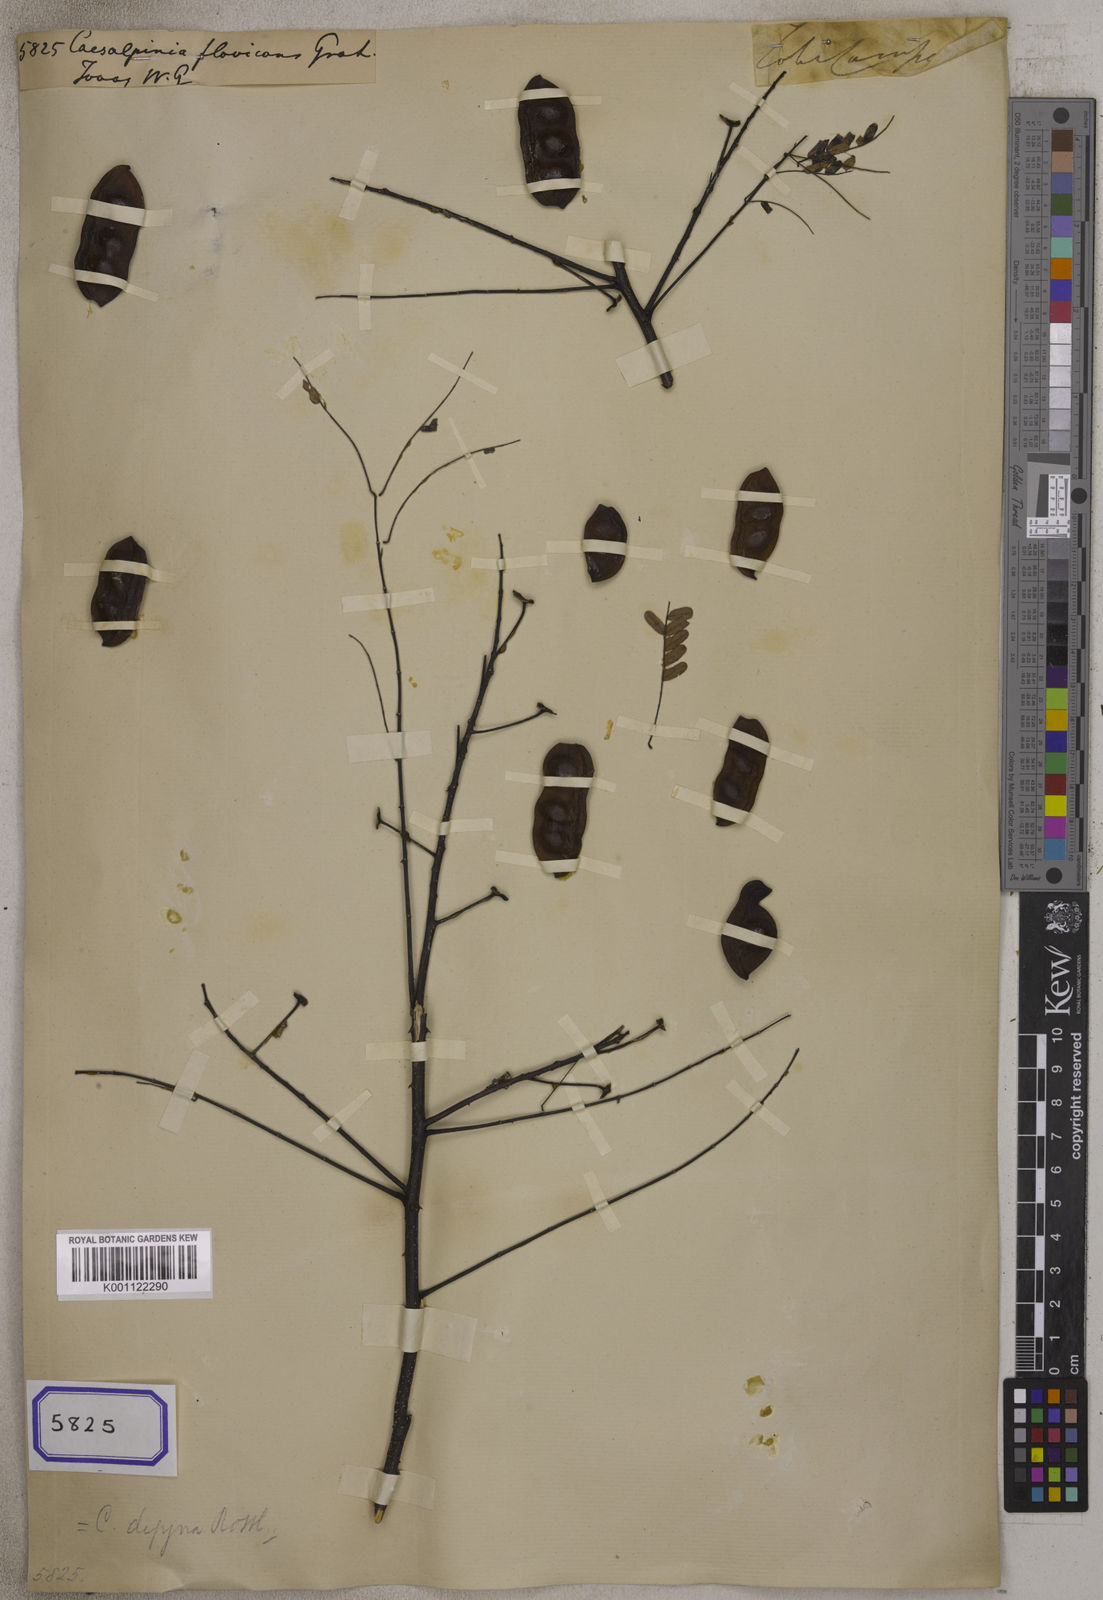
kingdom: Plantae
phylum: Tracheophyta
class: Magnoliopsida
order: Fabales
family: Fabaceae
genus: Moullava
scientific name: Moullava digyna
